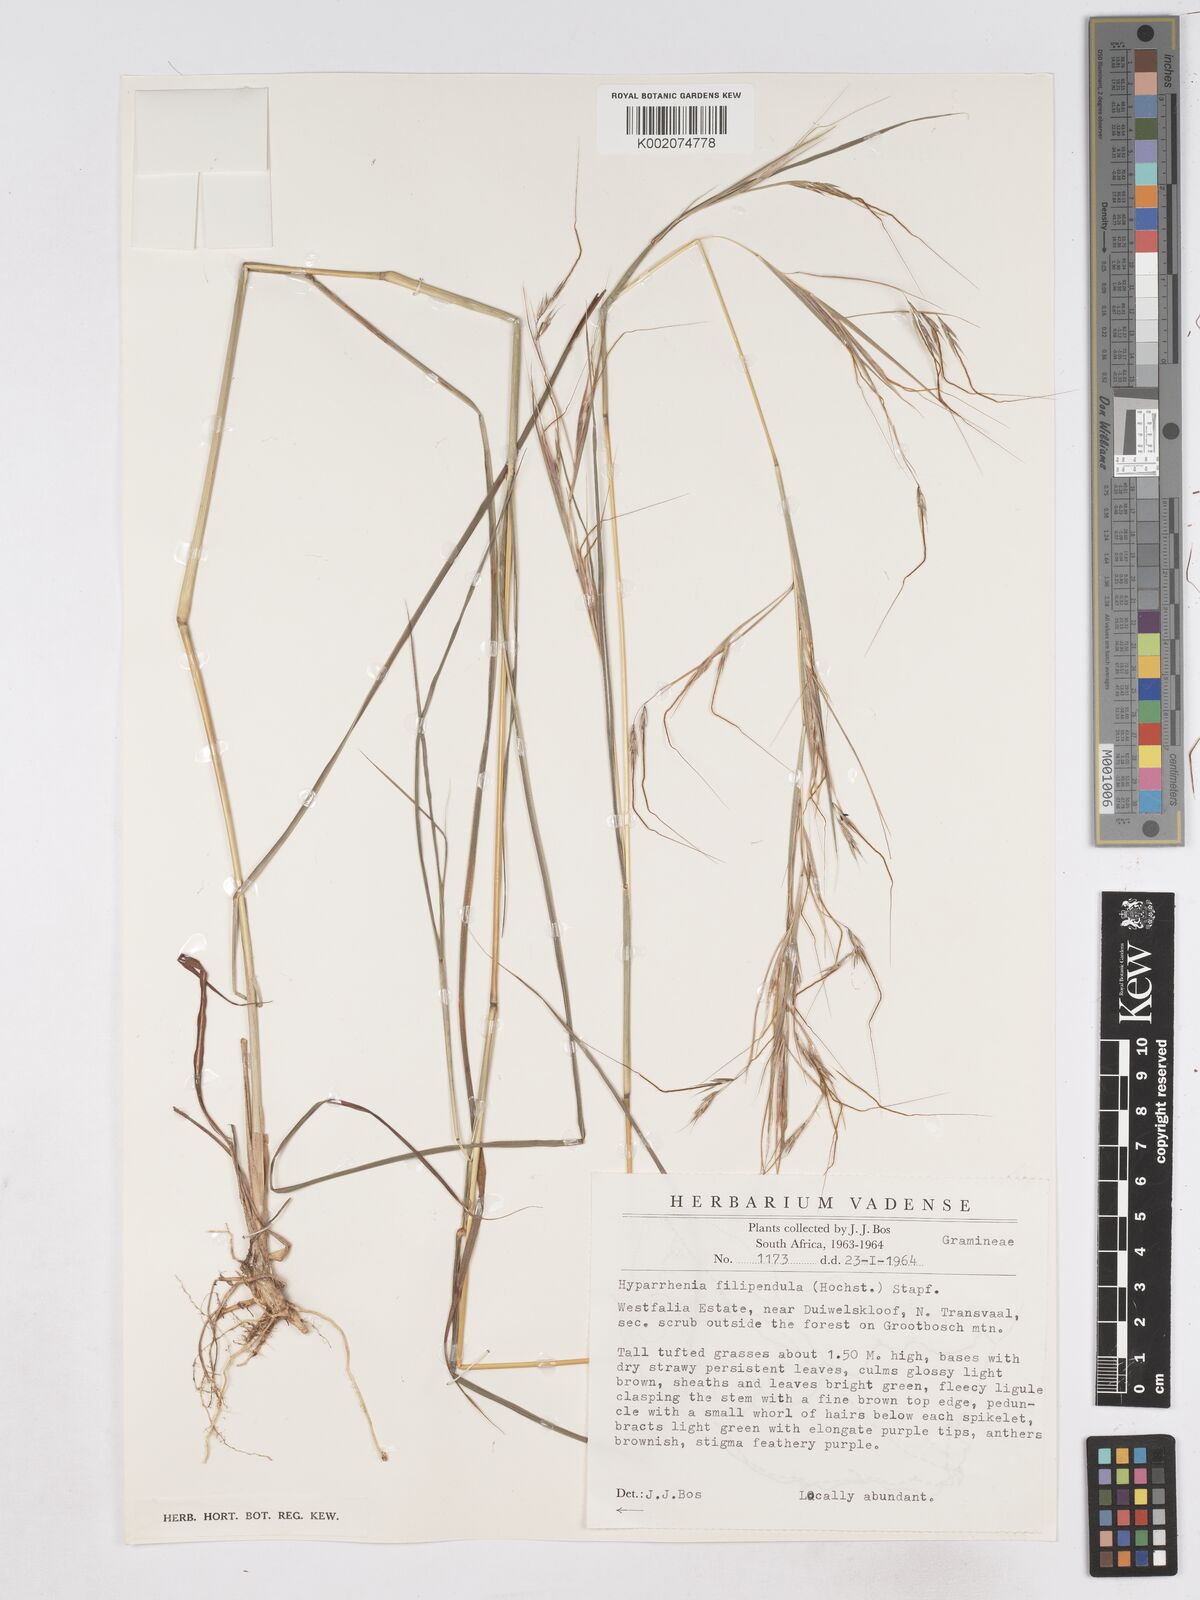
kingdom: Plantae
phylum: Tracheophyta
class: Liliopsida
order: Poales
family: Poaceae
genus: Hyparrhenia
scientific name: Hyparrhenia filipendula
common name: Tambookie grass
